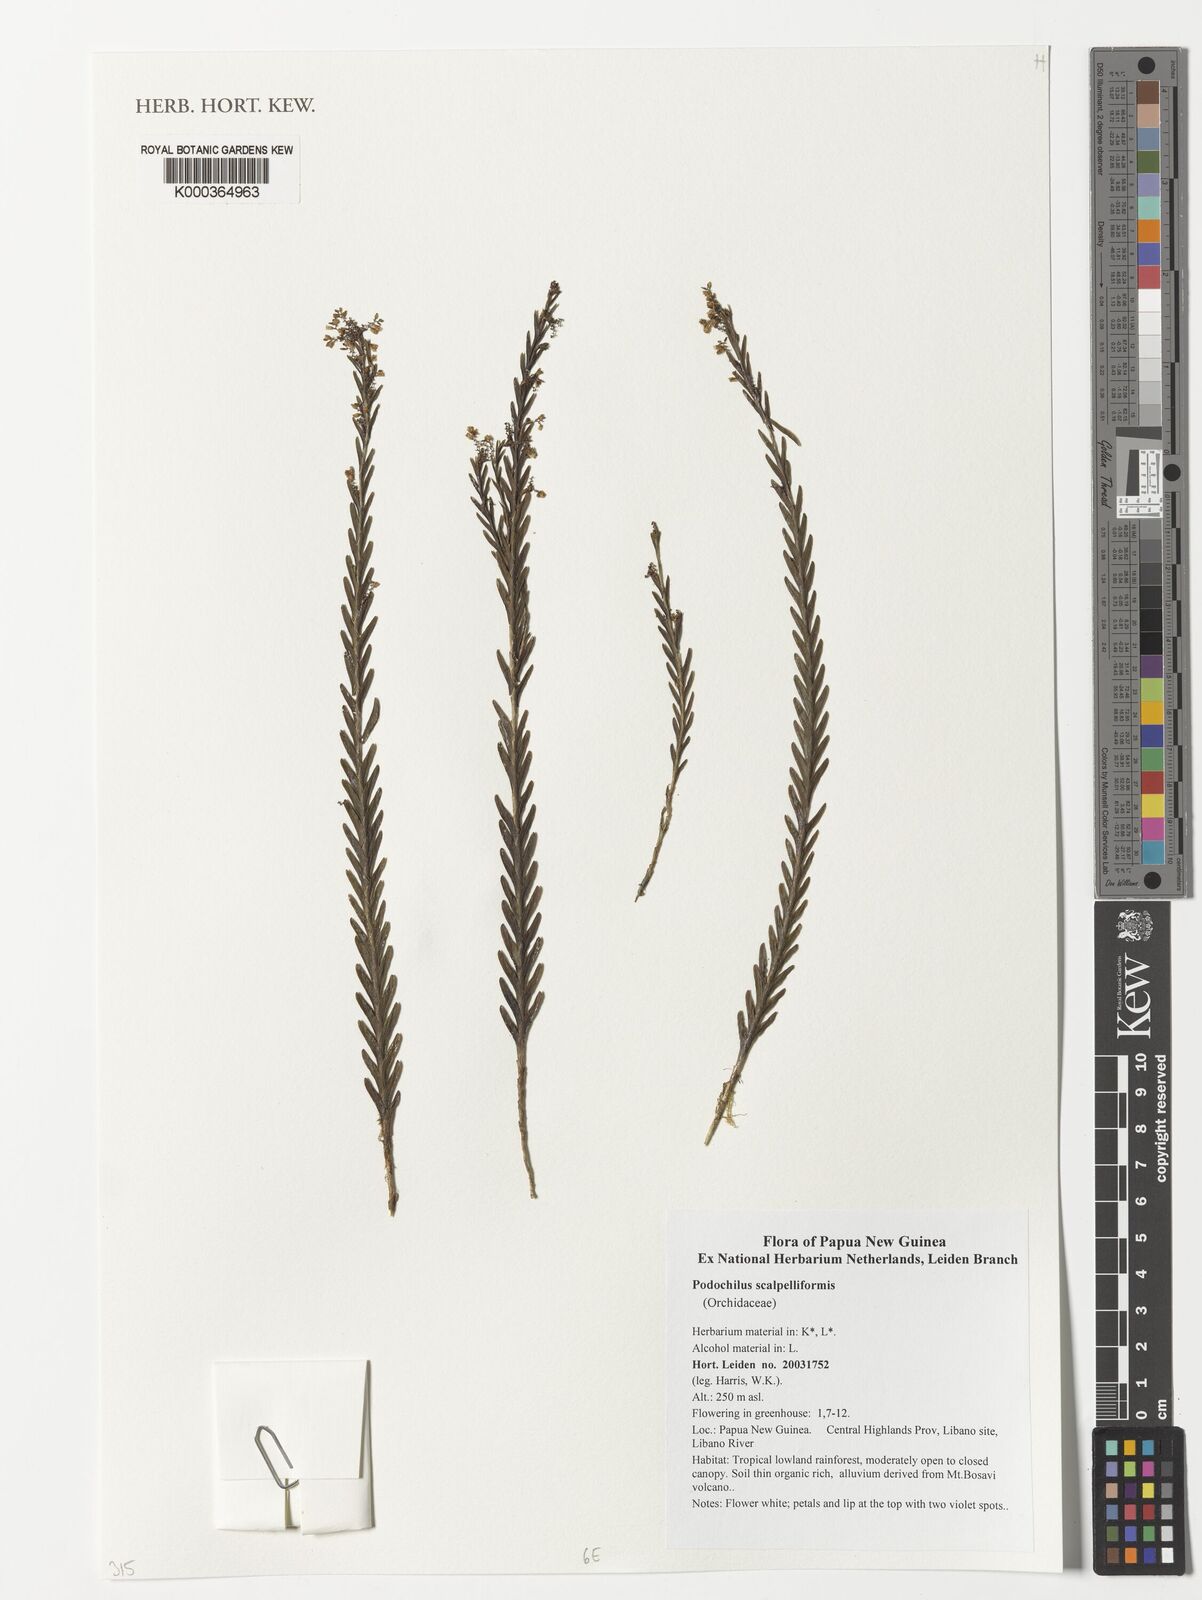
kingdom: Plantae
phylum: Tracheophyta
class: Liliopsida
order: Asparagales
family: Orchidaceae
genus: Podochilus
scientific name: Podochilus scalpelliformis
